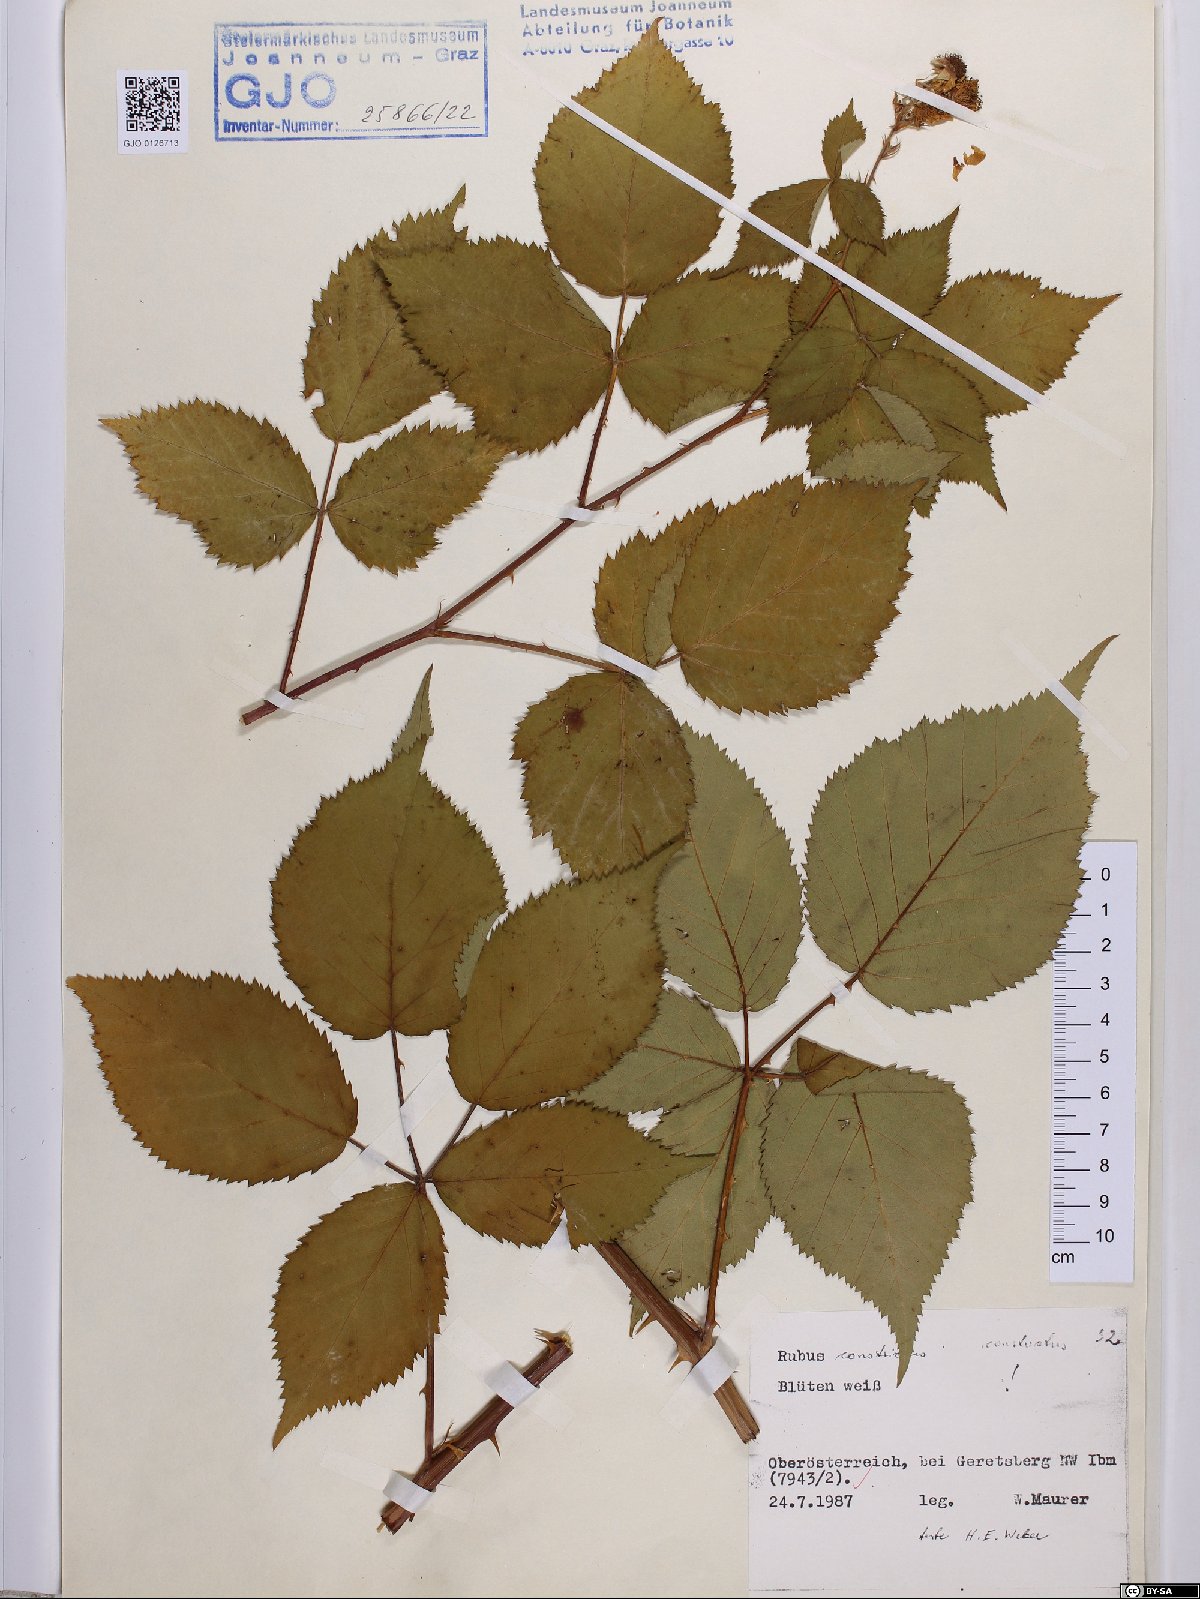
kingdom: Plantae
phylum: Tracheophyta
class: Magnoliopsida
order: Rosales
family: Rosaceae
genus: Rubus
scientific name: Rubus constrictus
